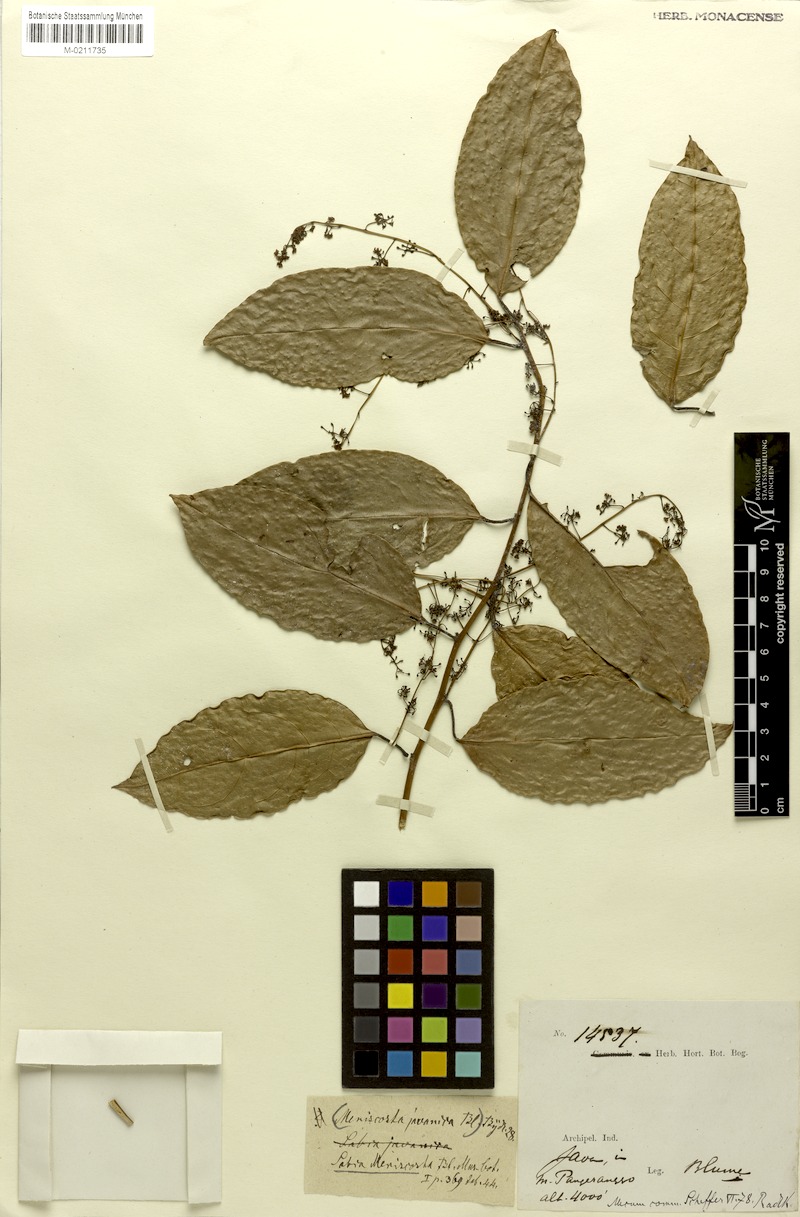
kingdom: Plantae
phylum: Tracheophyta
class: Magnoliopsida
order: Proteales
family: Sabiaceae
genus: Sabia
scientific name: Sabia javanica
